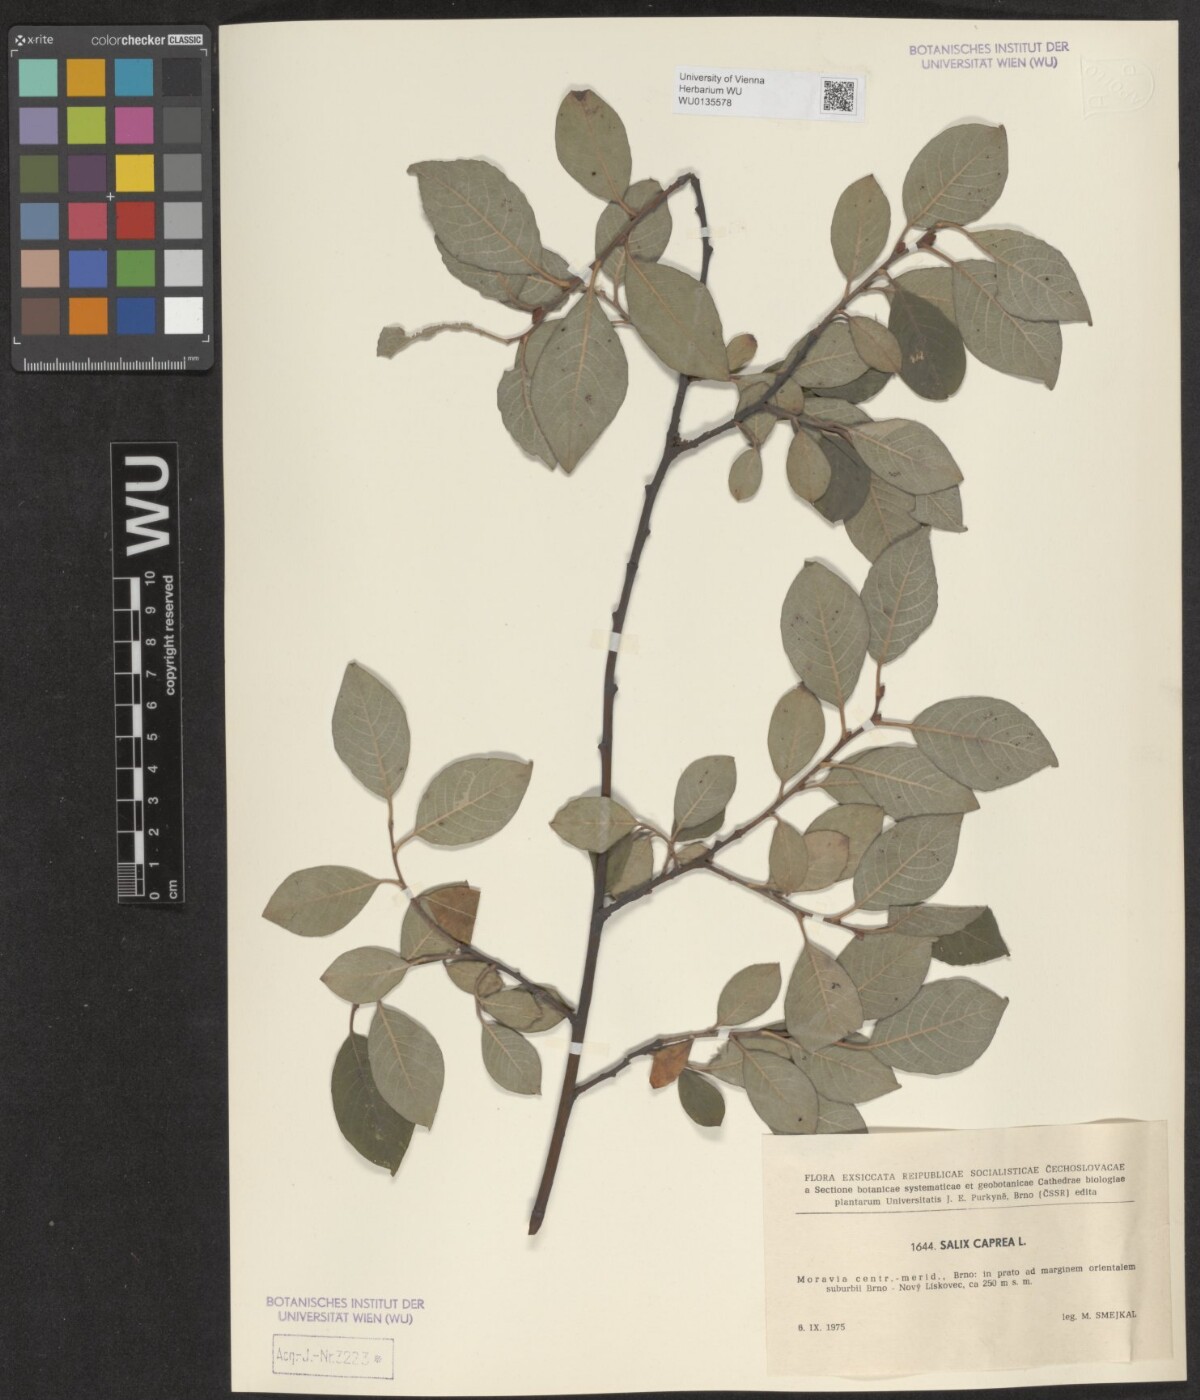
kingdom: Plantae
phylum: Tracheophyta
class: Magnoliopsida
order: Malpighiales
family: Salicaceae
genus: Salix
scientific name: Salix caprea
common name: Goat willow
